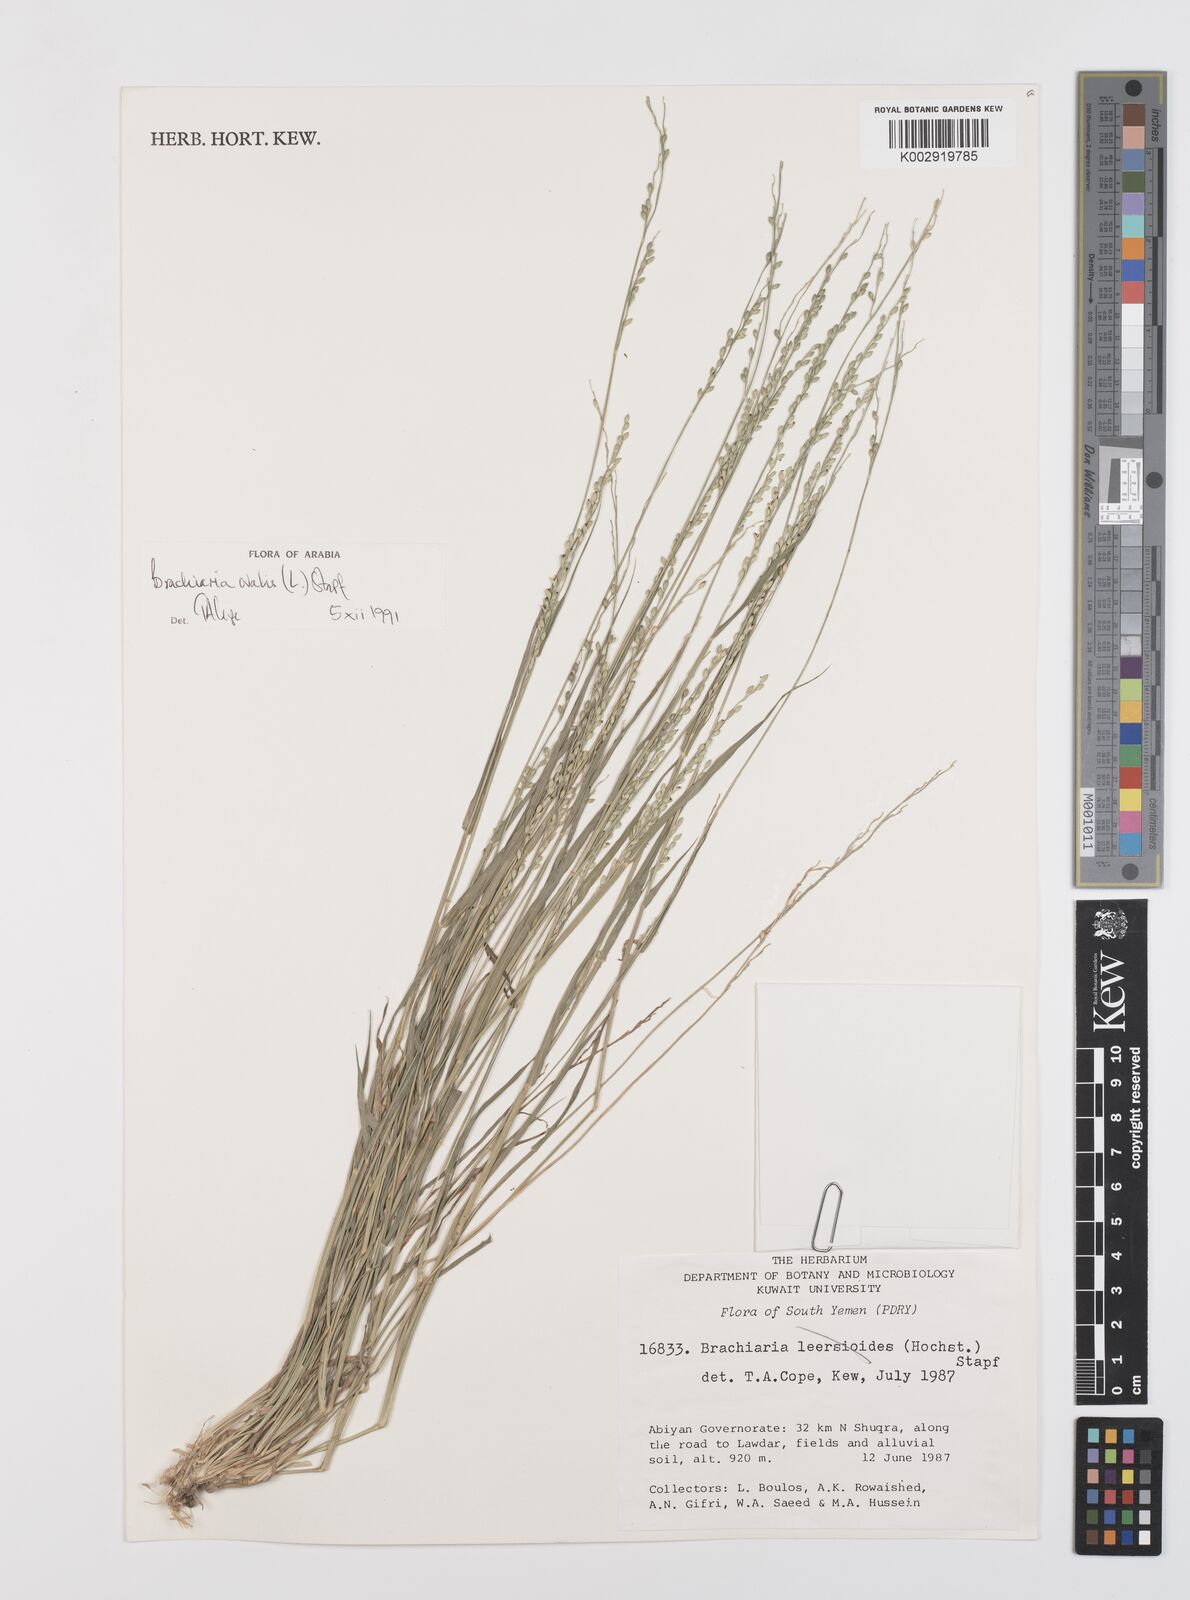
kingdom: Plantae
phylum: Tracheophyta
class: Liliopsida
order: Poales
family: Poaceae
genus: Urochloa
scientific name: Urochloa ovalis
